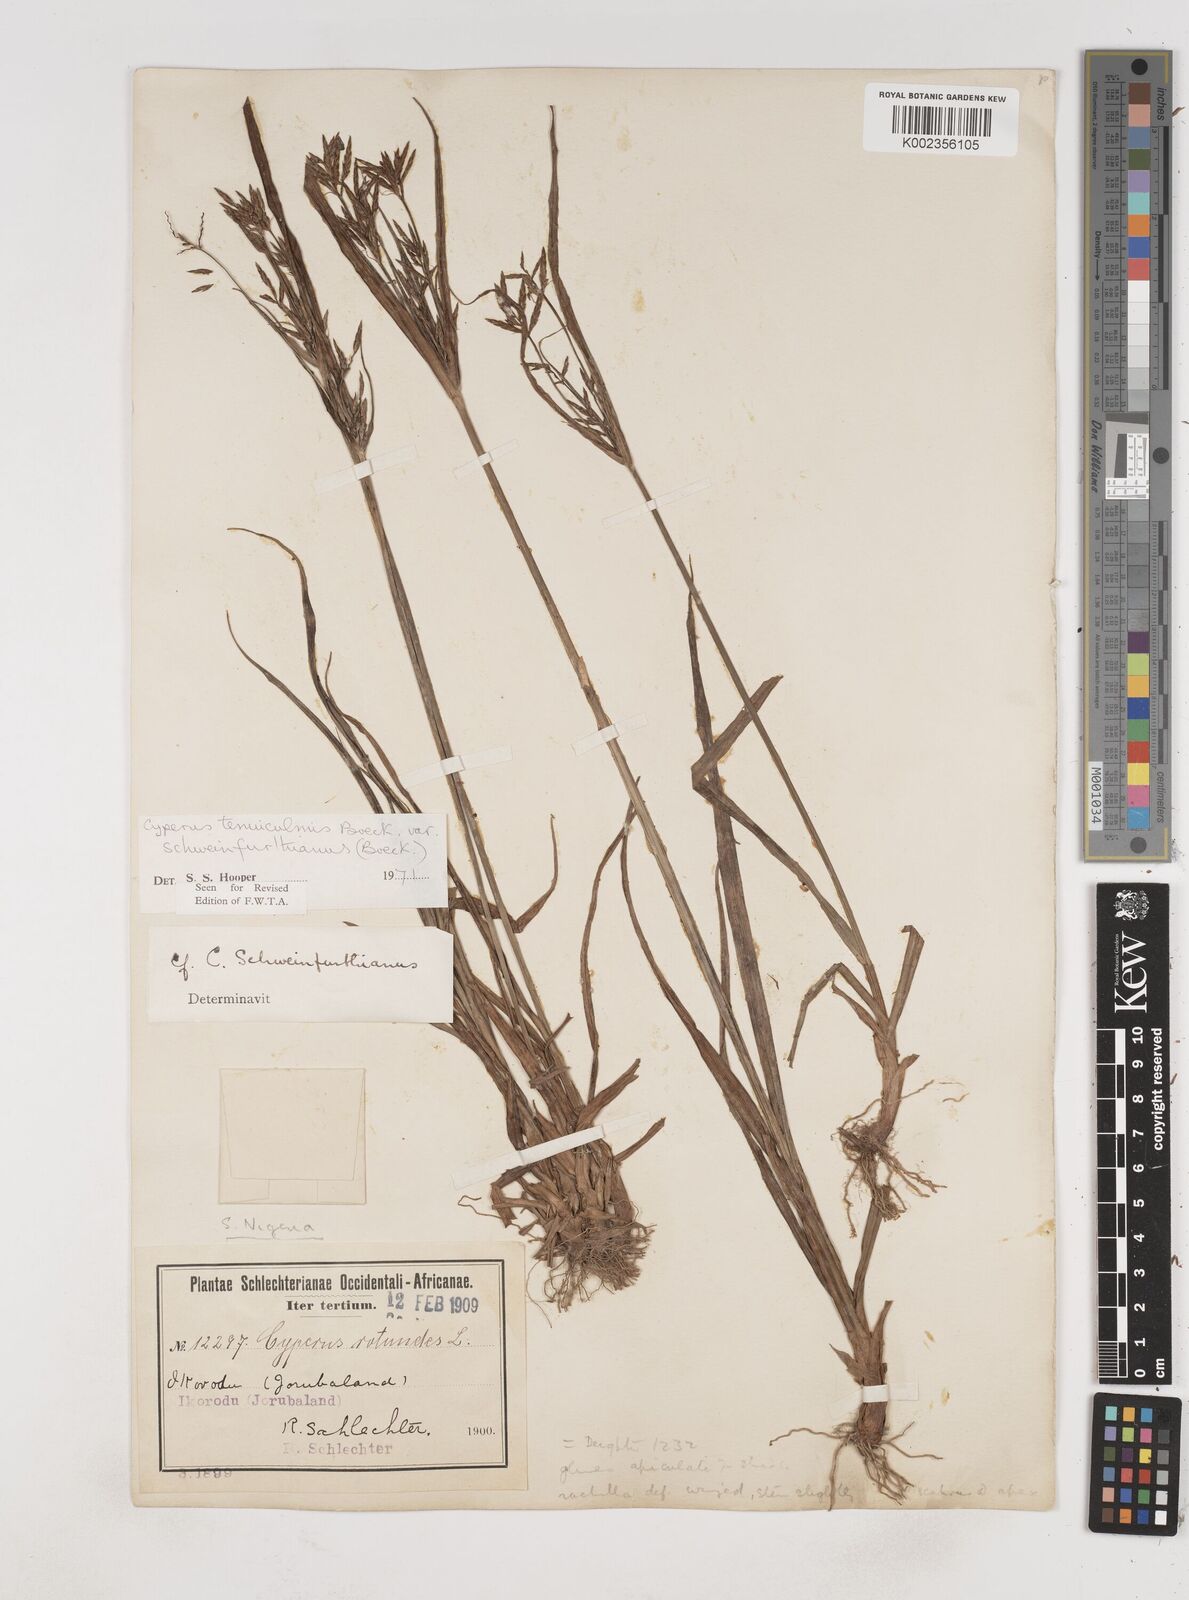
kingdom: Plantae
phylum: Tracheophyta
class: Liliopsida
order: Poales
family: Cyperaceae
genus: Cyperus
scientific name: Cyperus tenuiculmis
